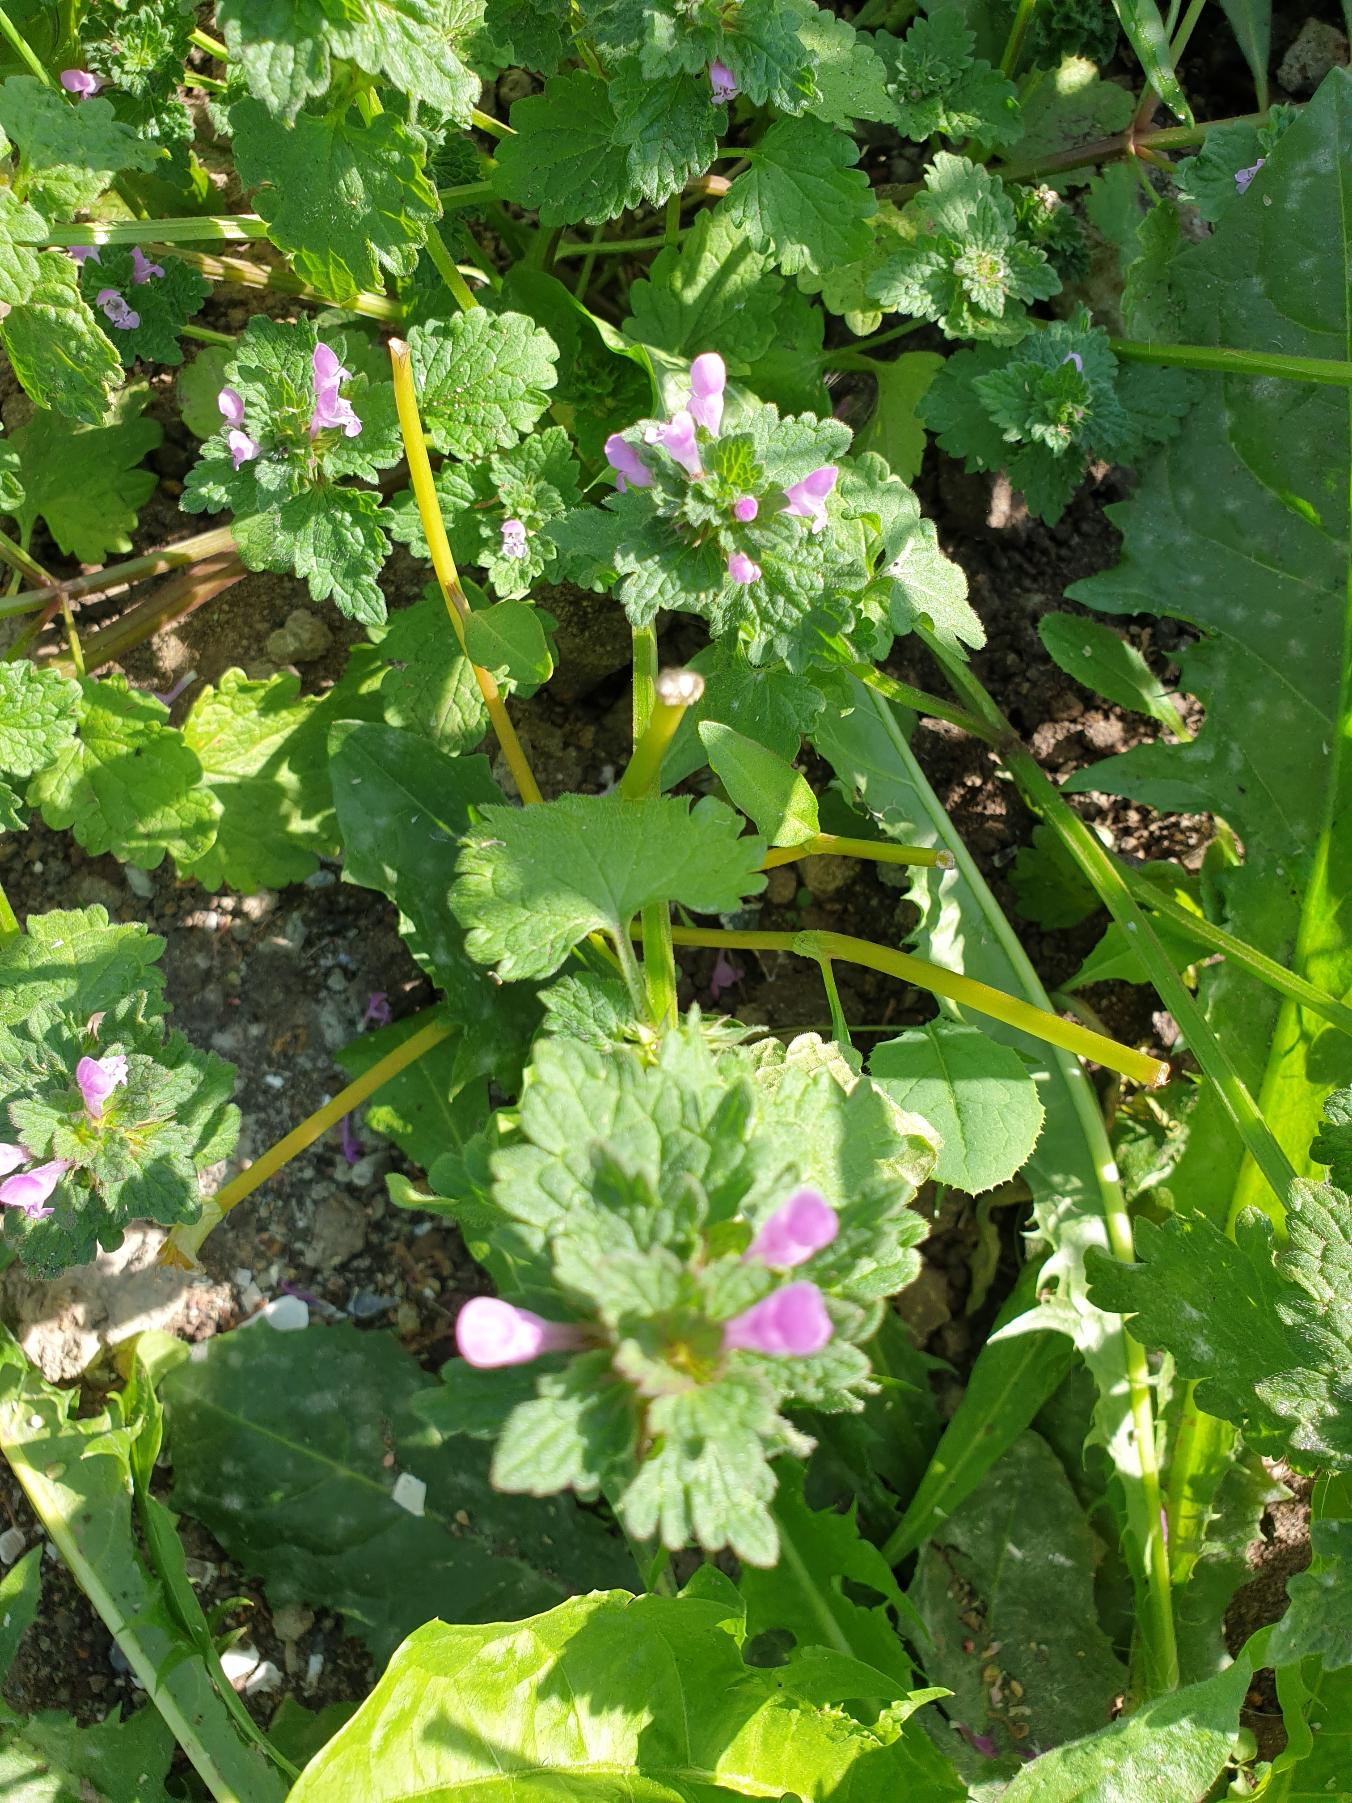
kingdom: Plantae
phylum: Tracheophyta
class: Magnoliopsida
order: Lamiales
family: Lamiaceae
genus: Lamium
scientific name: Lamium hybridum
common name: Fliget tvetand
